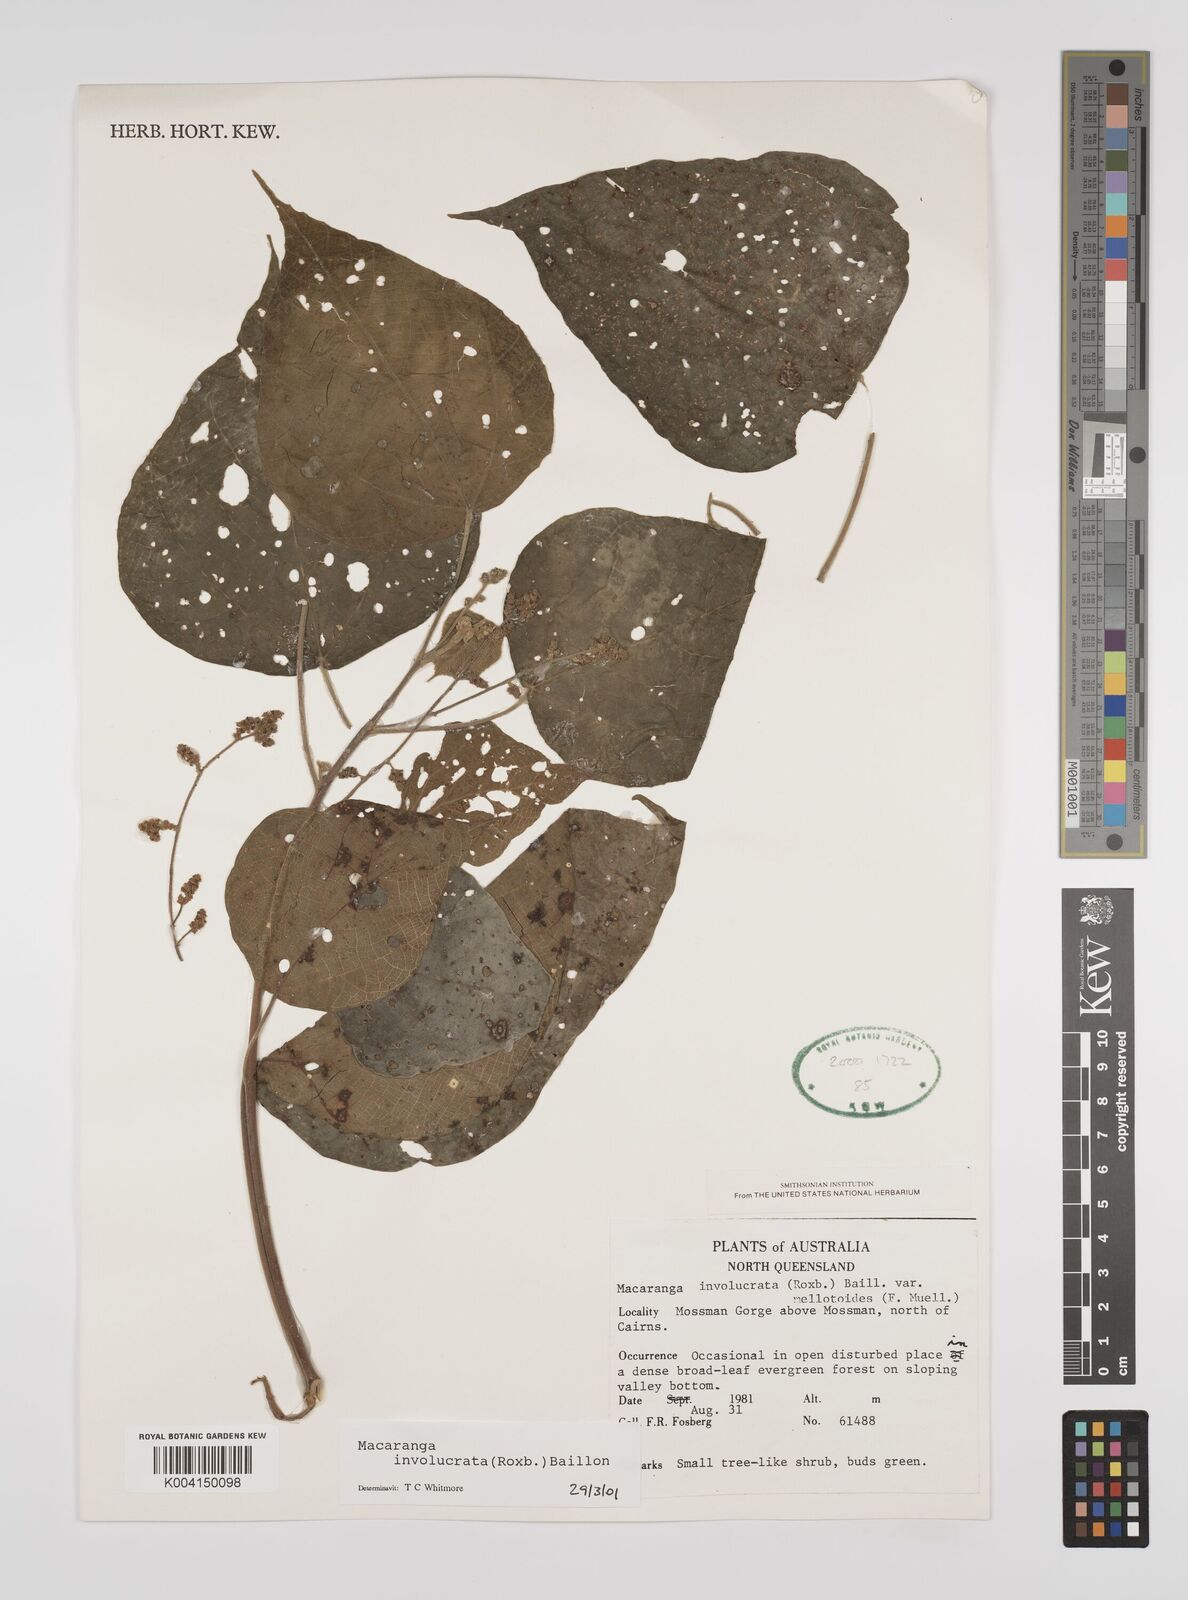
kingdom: Plantae
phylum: Tracheophyta
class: Magnoliopsida
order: Malpighiales
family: Euphorbiaceae
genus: Macaranga
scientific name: Macaranga involucrata
